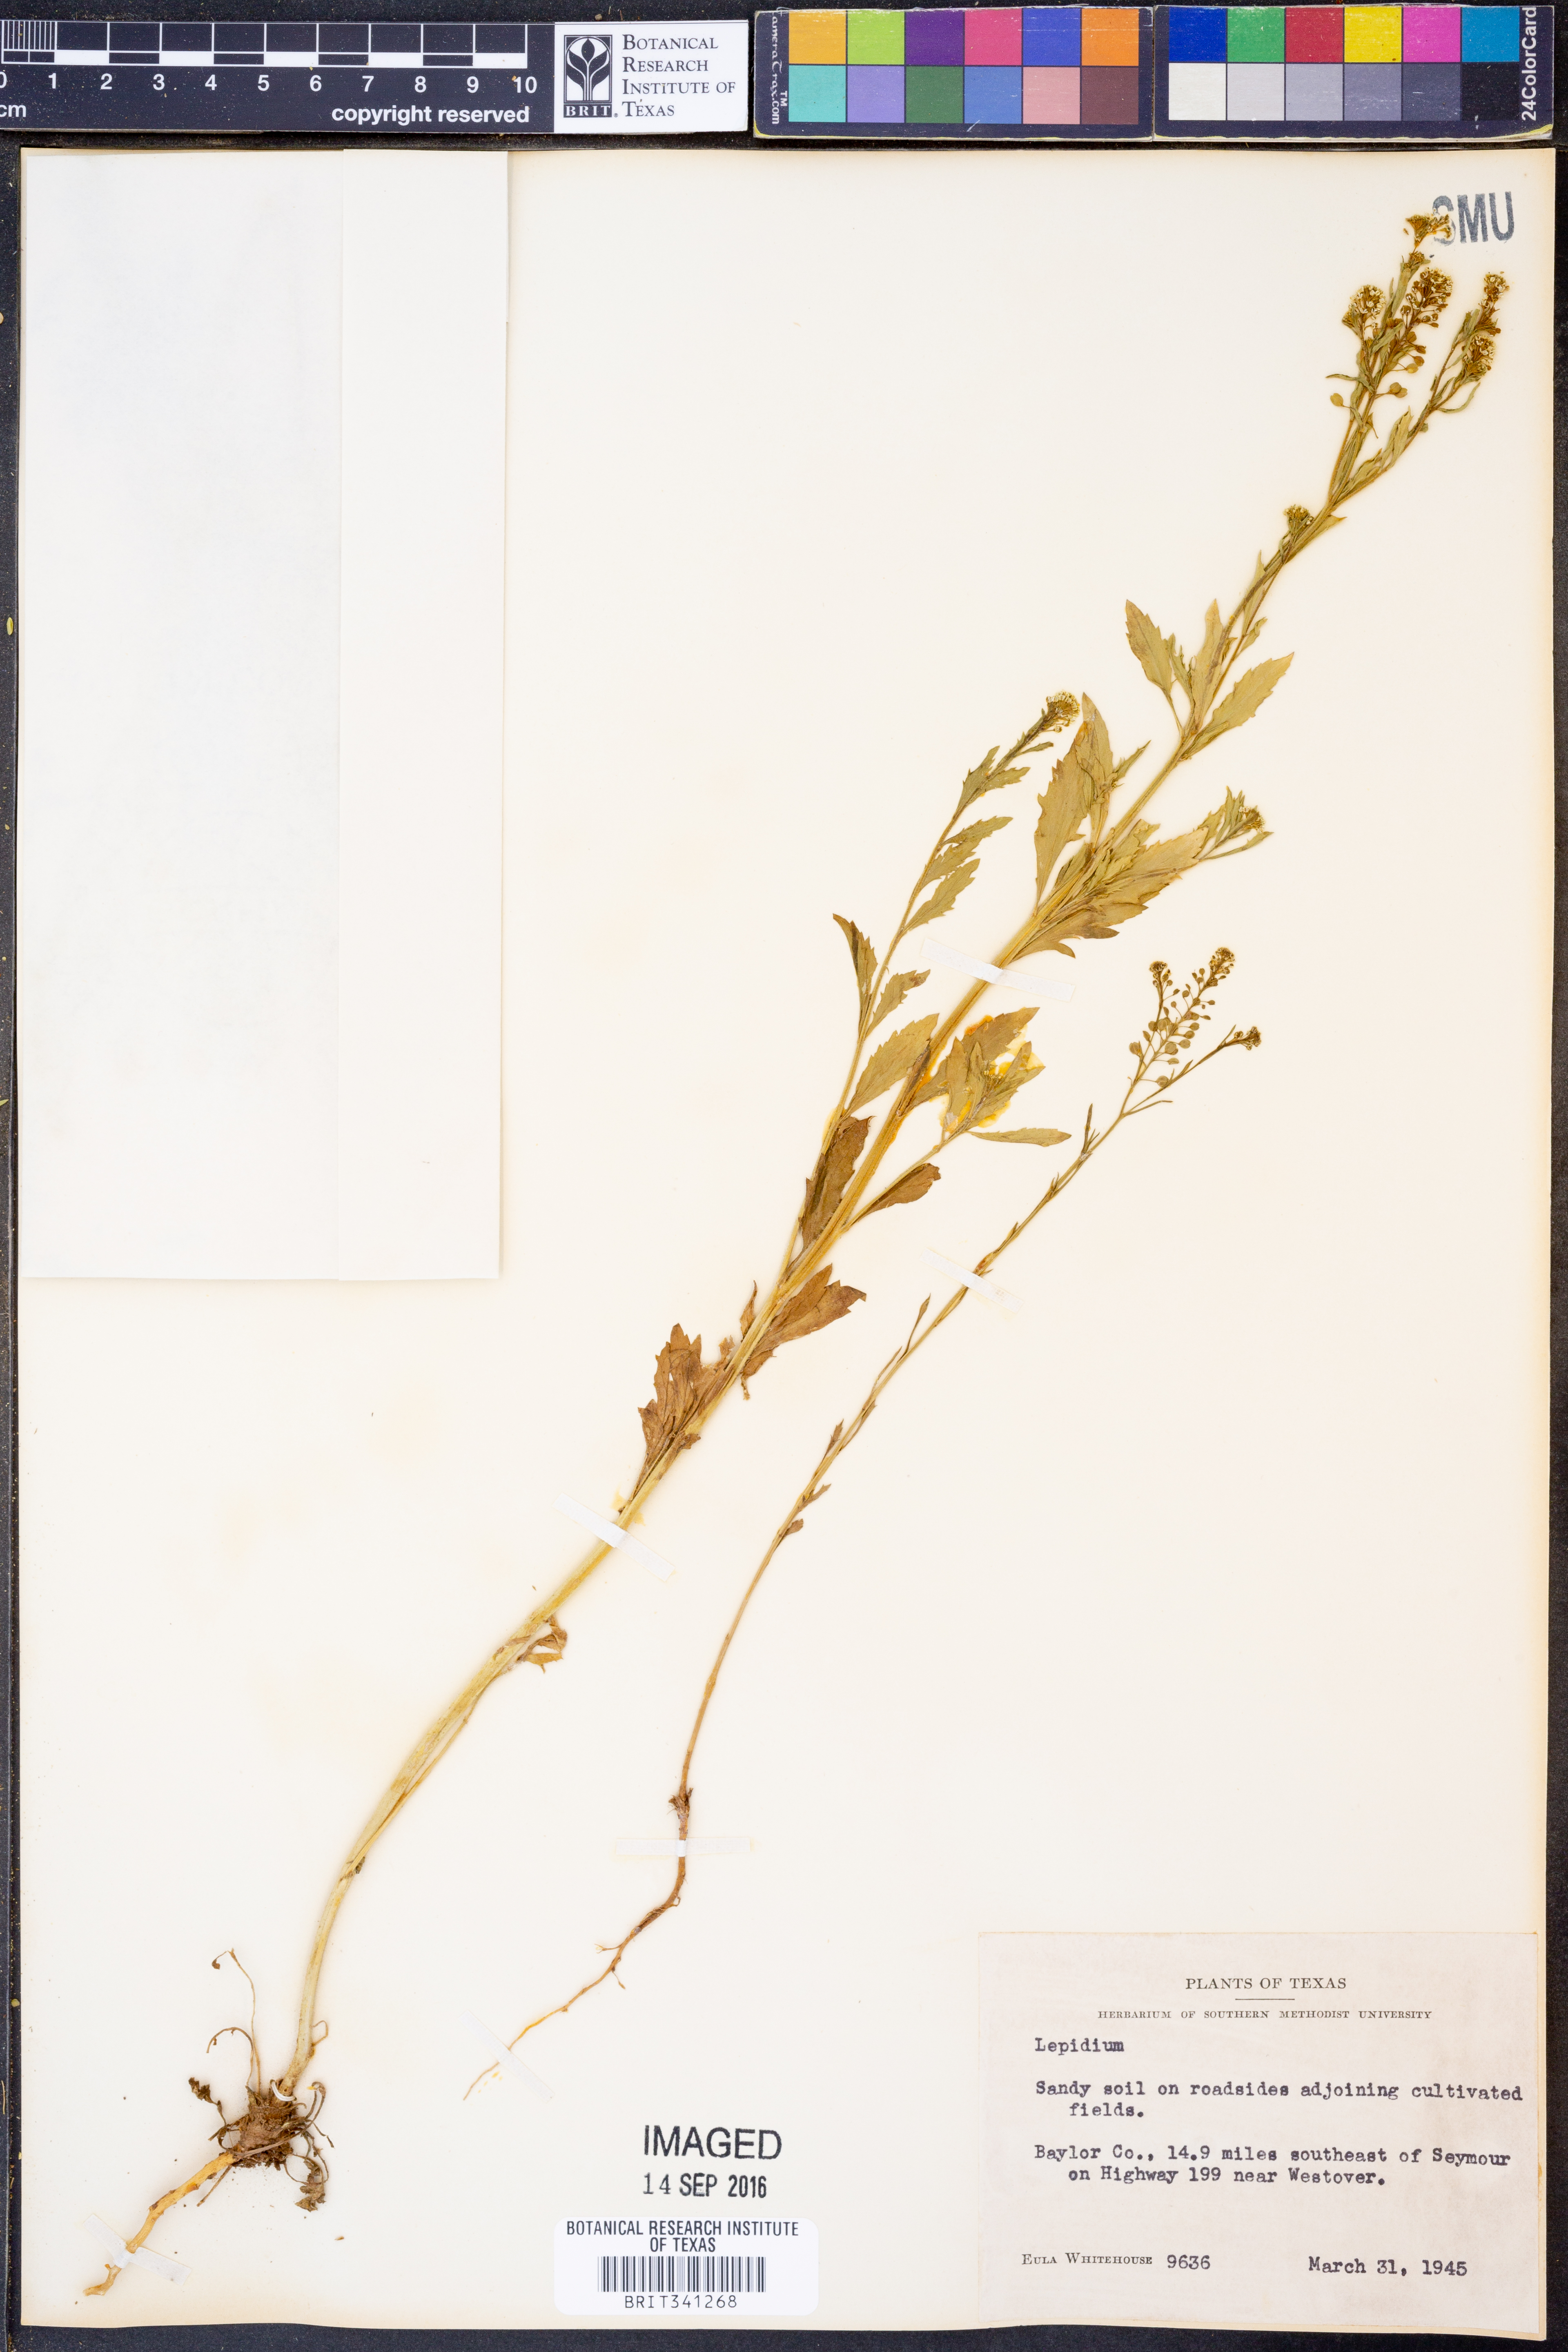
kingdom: Plantae
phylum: Tracheophyta
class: Magnoliopsida
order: Brassicales
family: Brassicaceae
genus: Lepidium
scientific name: Lepidium
